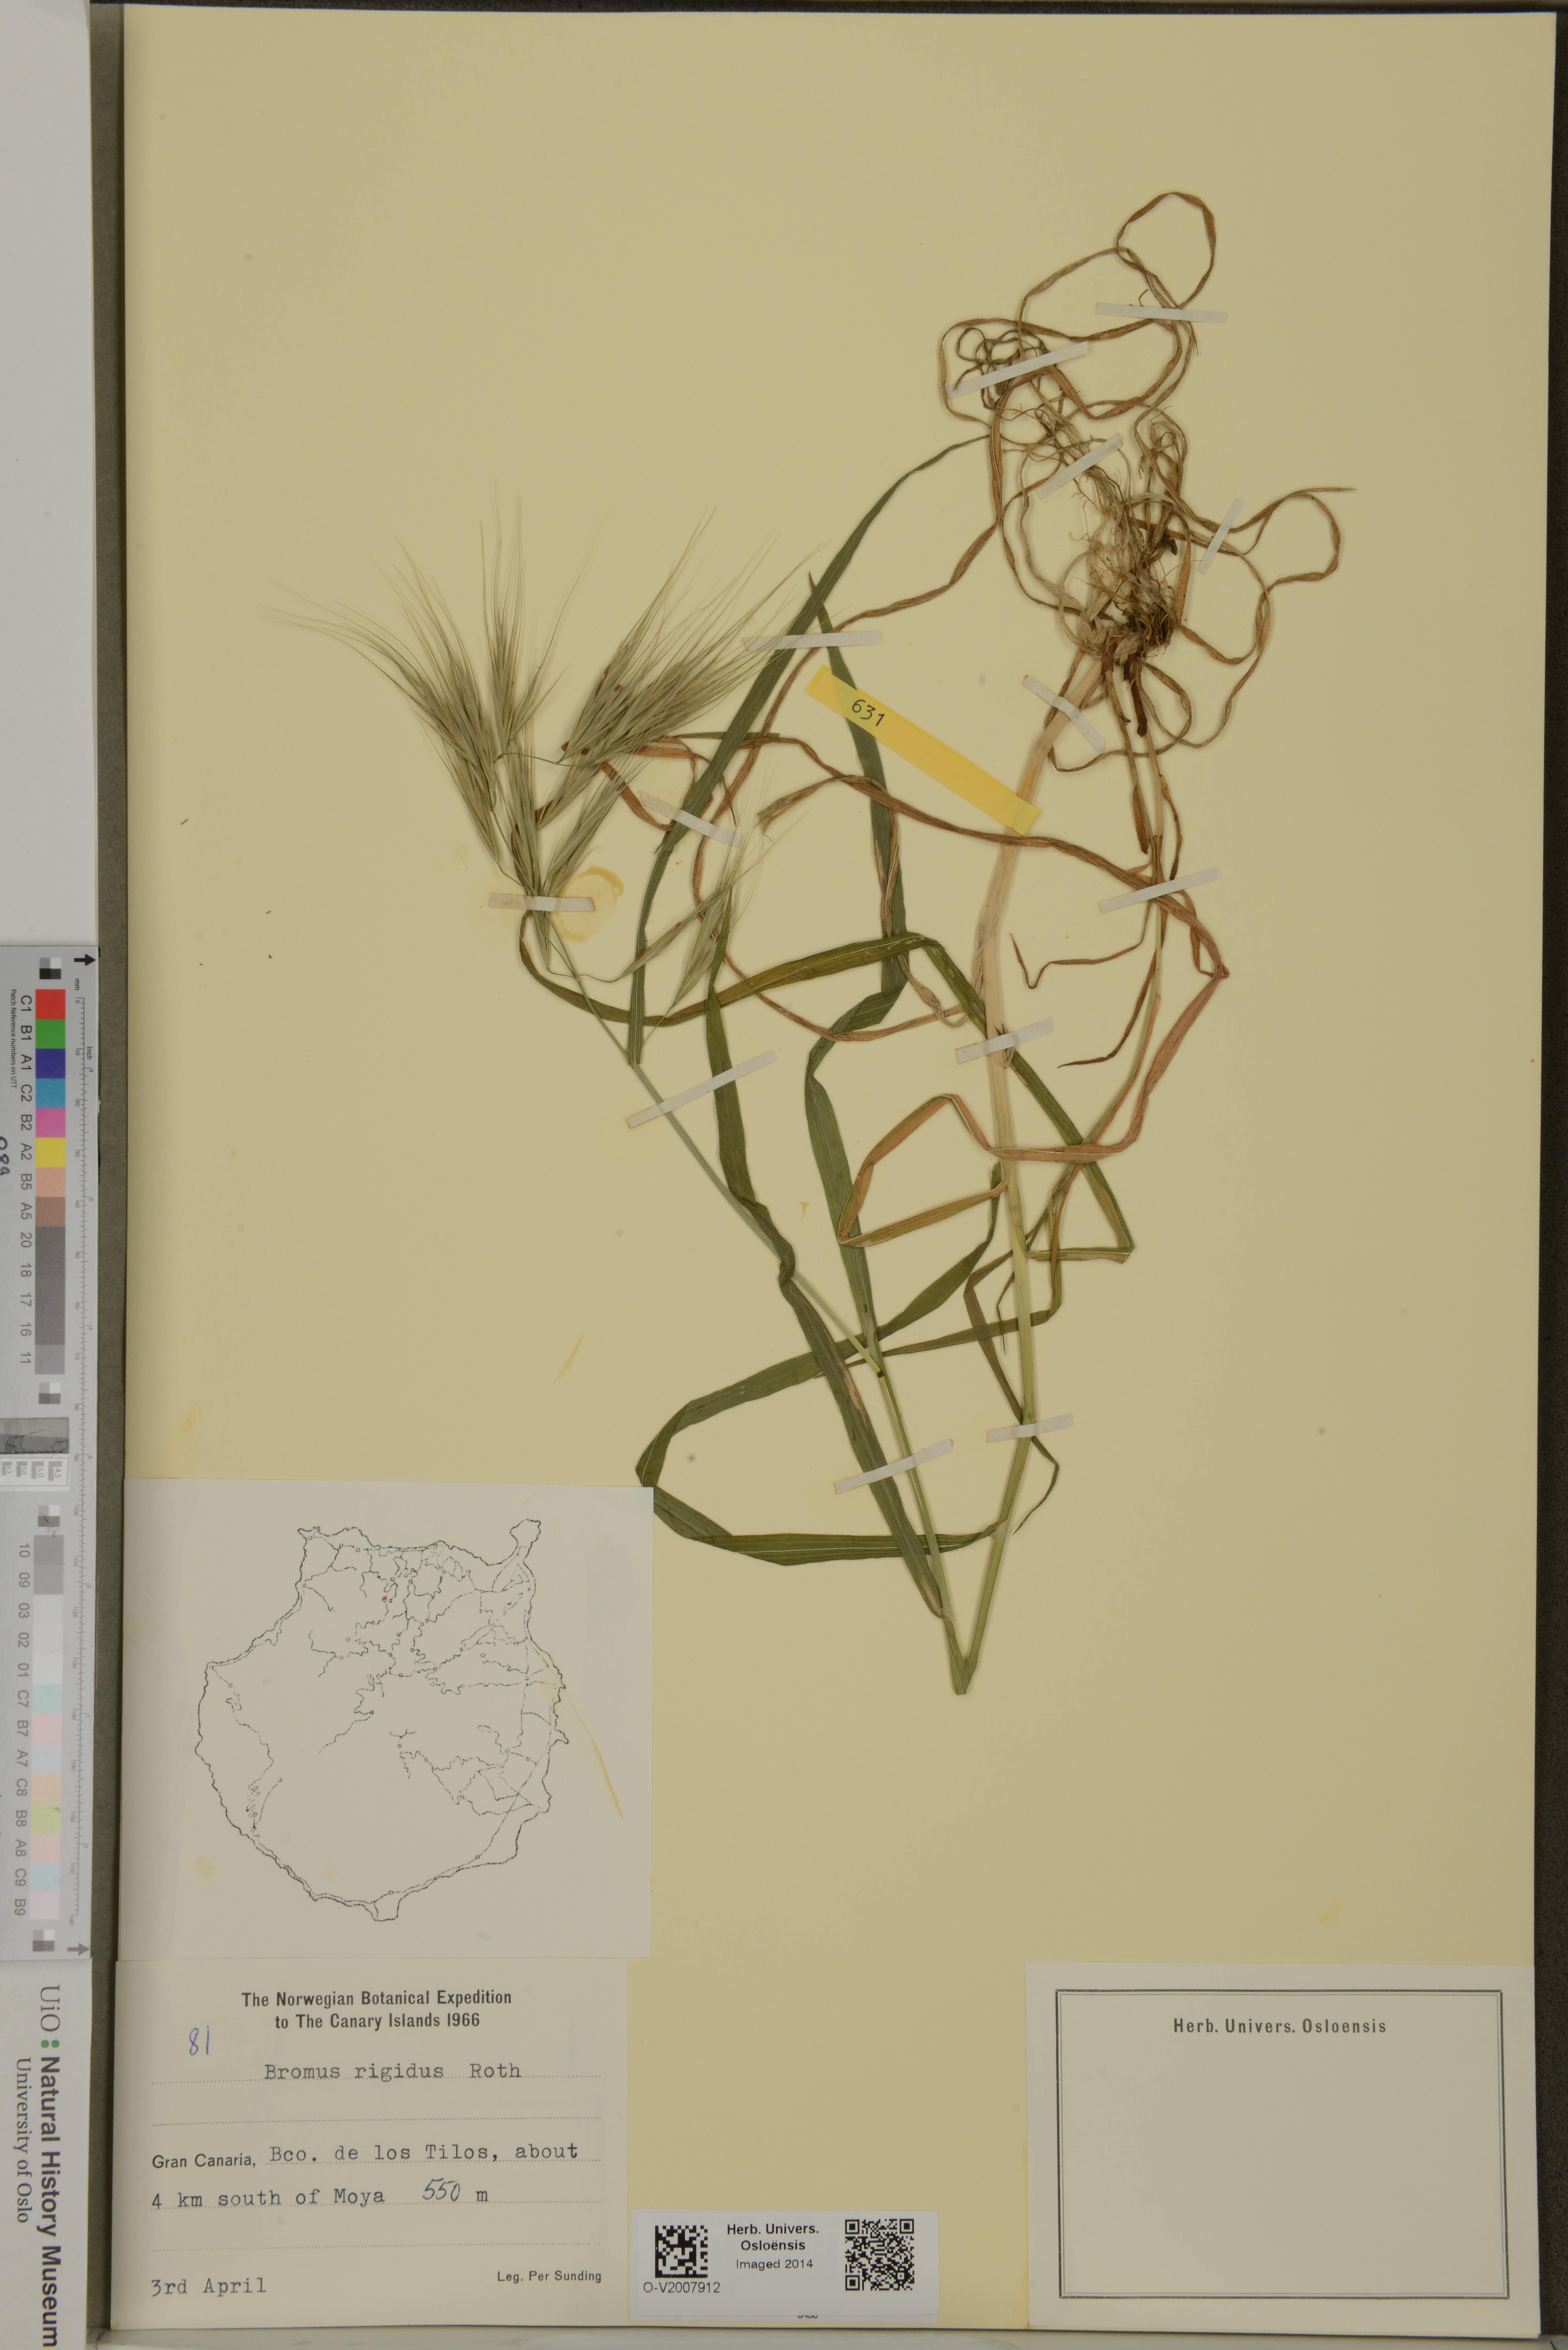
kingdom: Plantae
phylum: Tracheophyta
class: Liliopsida
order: Poales
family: Poaceae
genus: Bromus
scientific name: Bromus rigidus
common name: Ripgut brome
